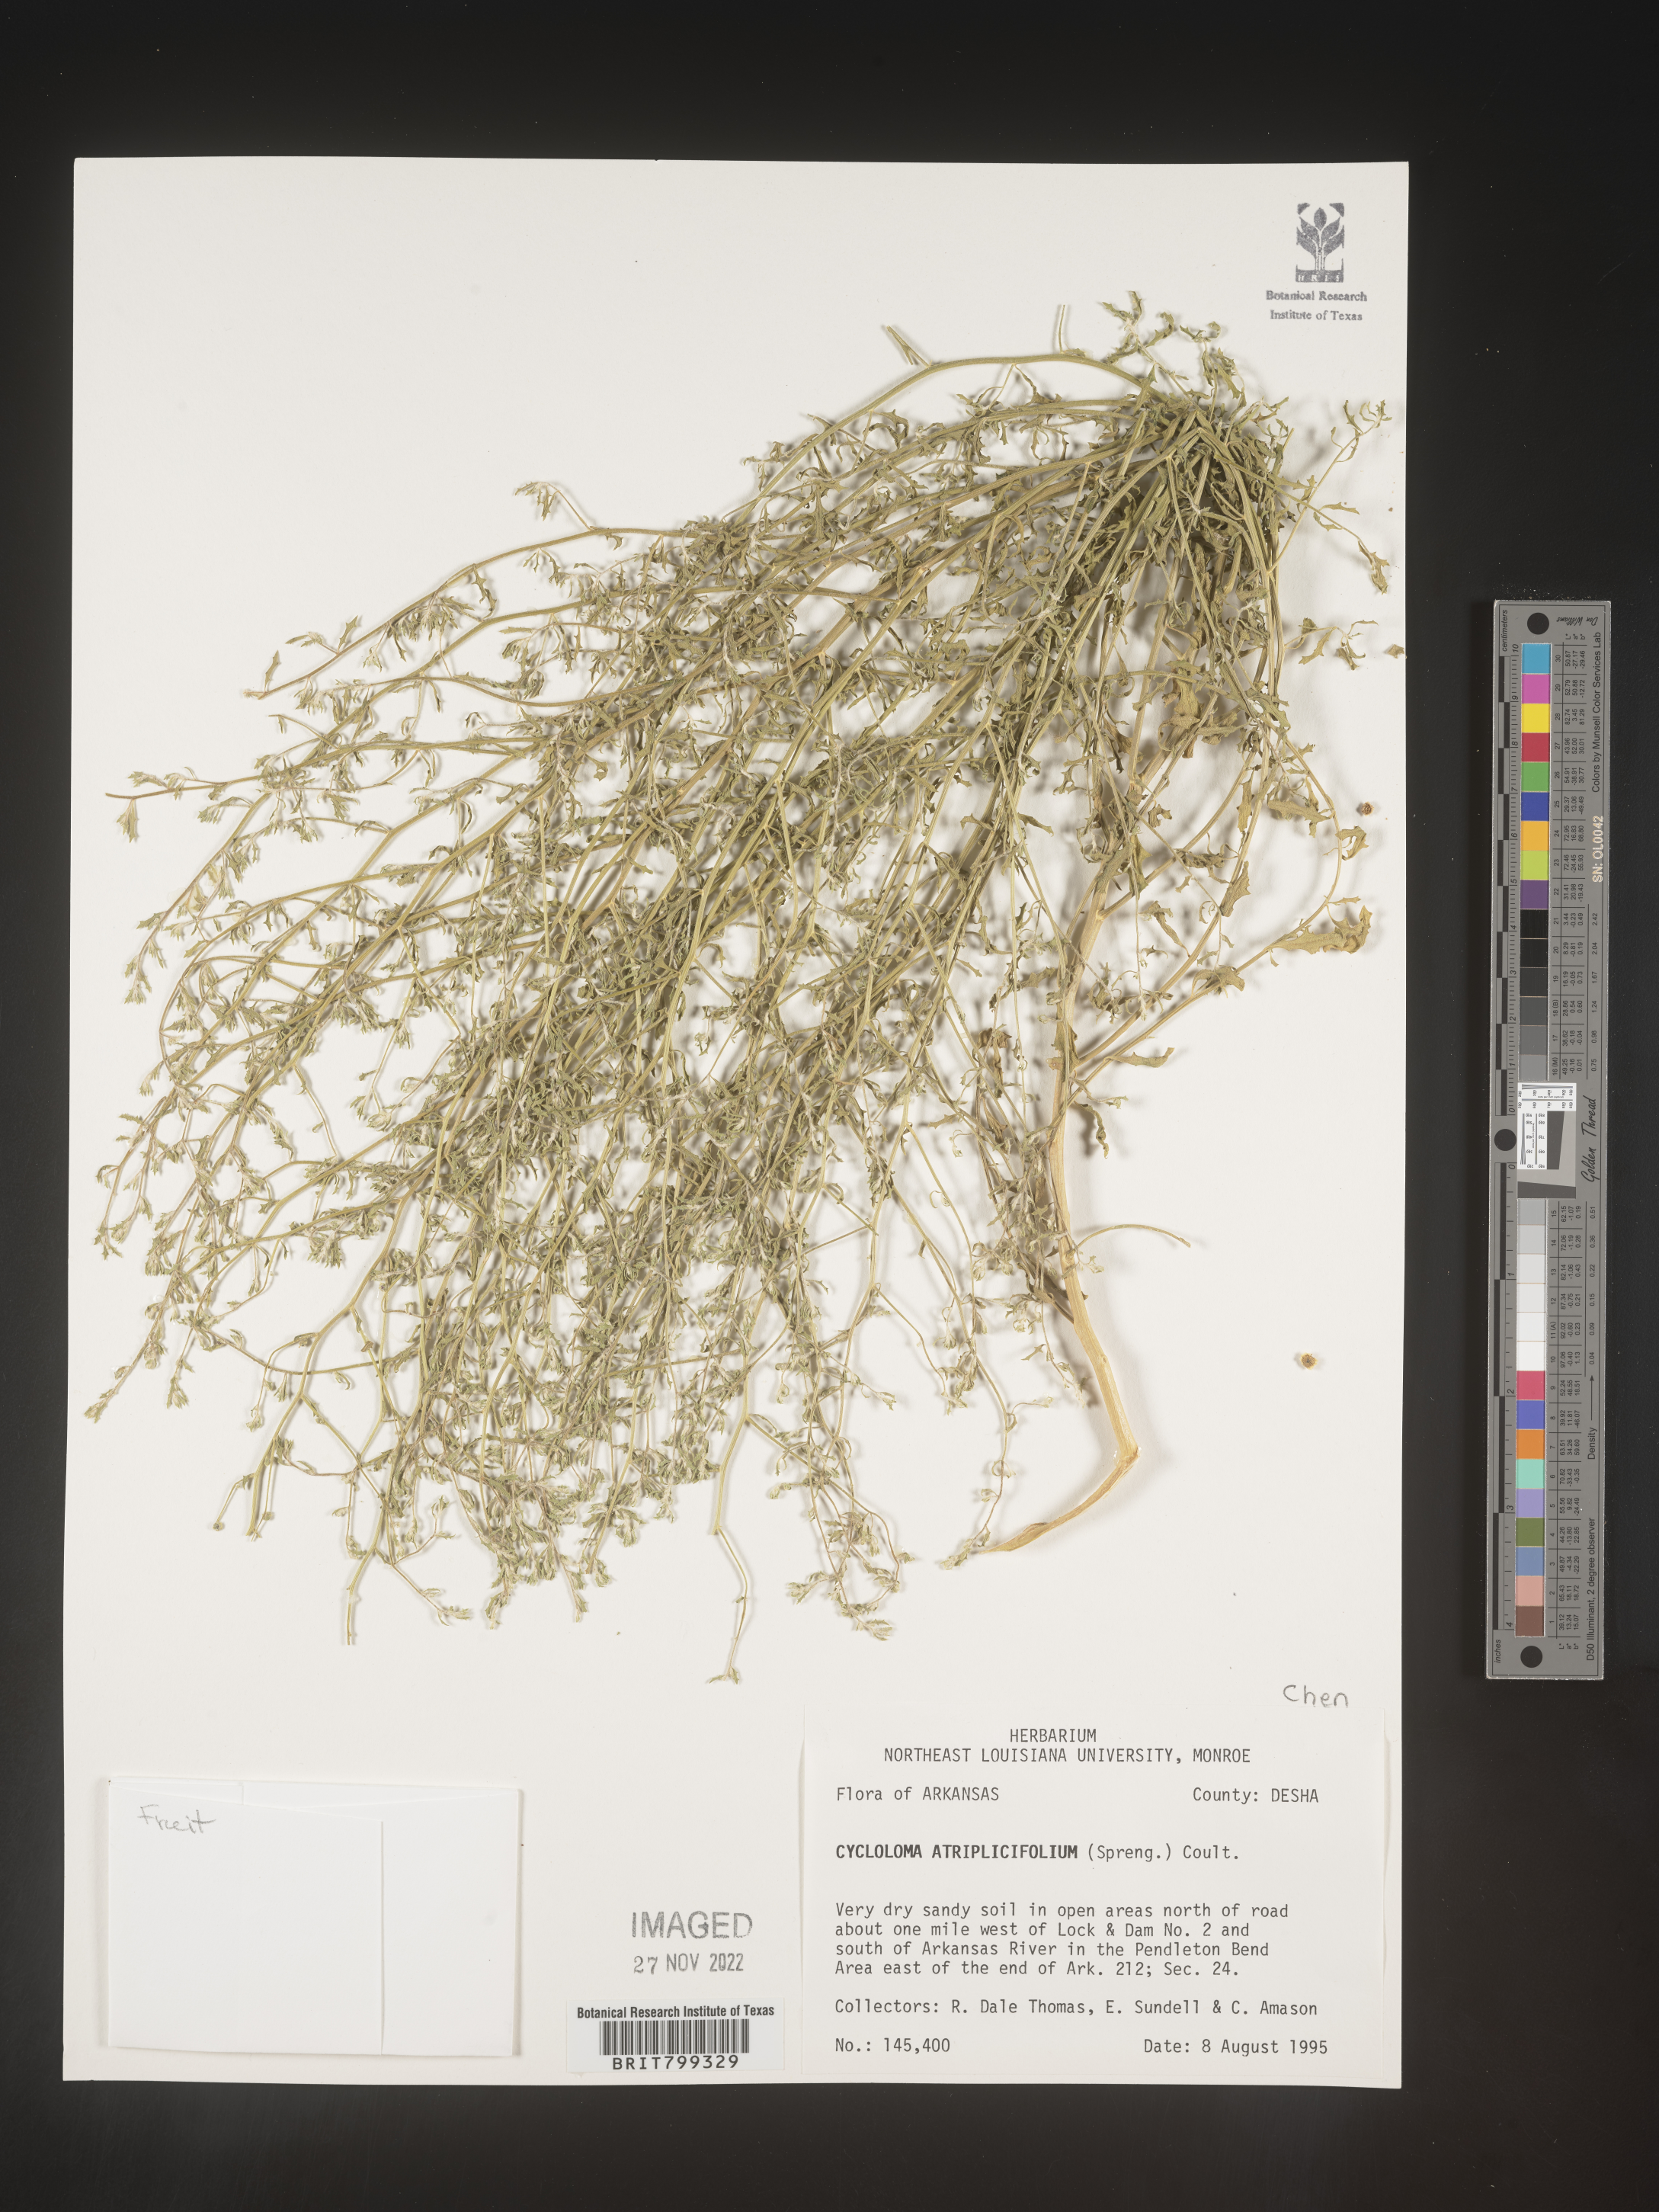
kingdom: Plantae
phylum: Tracheophyta
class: Magnoliopsida
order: Caryophyllales
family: Amaranthaceae
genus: Dysphania
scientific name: Dysphania atriplicifolia
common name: Plains tumbleweed
